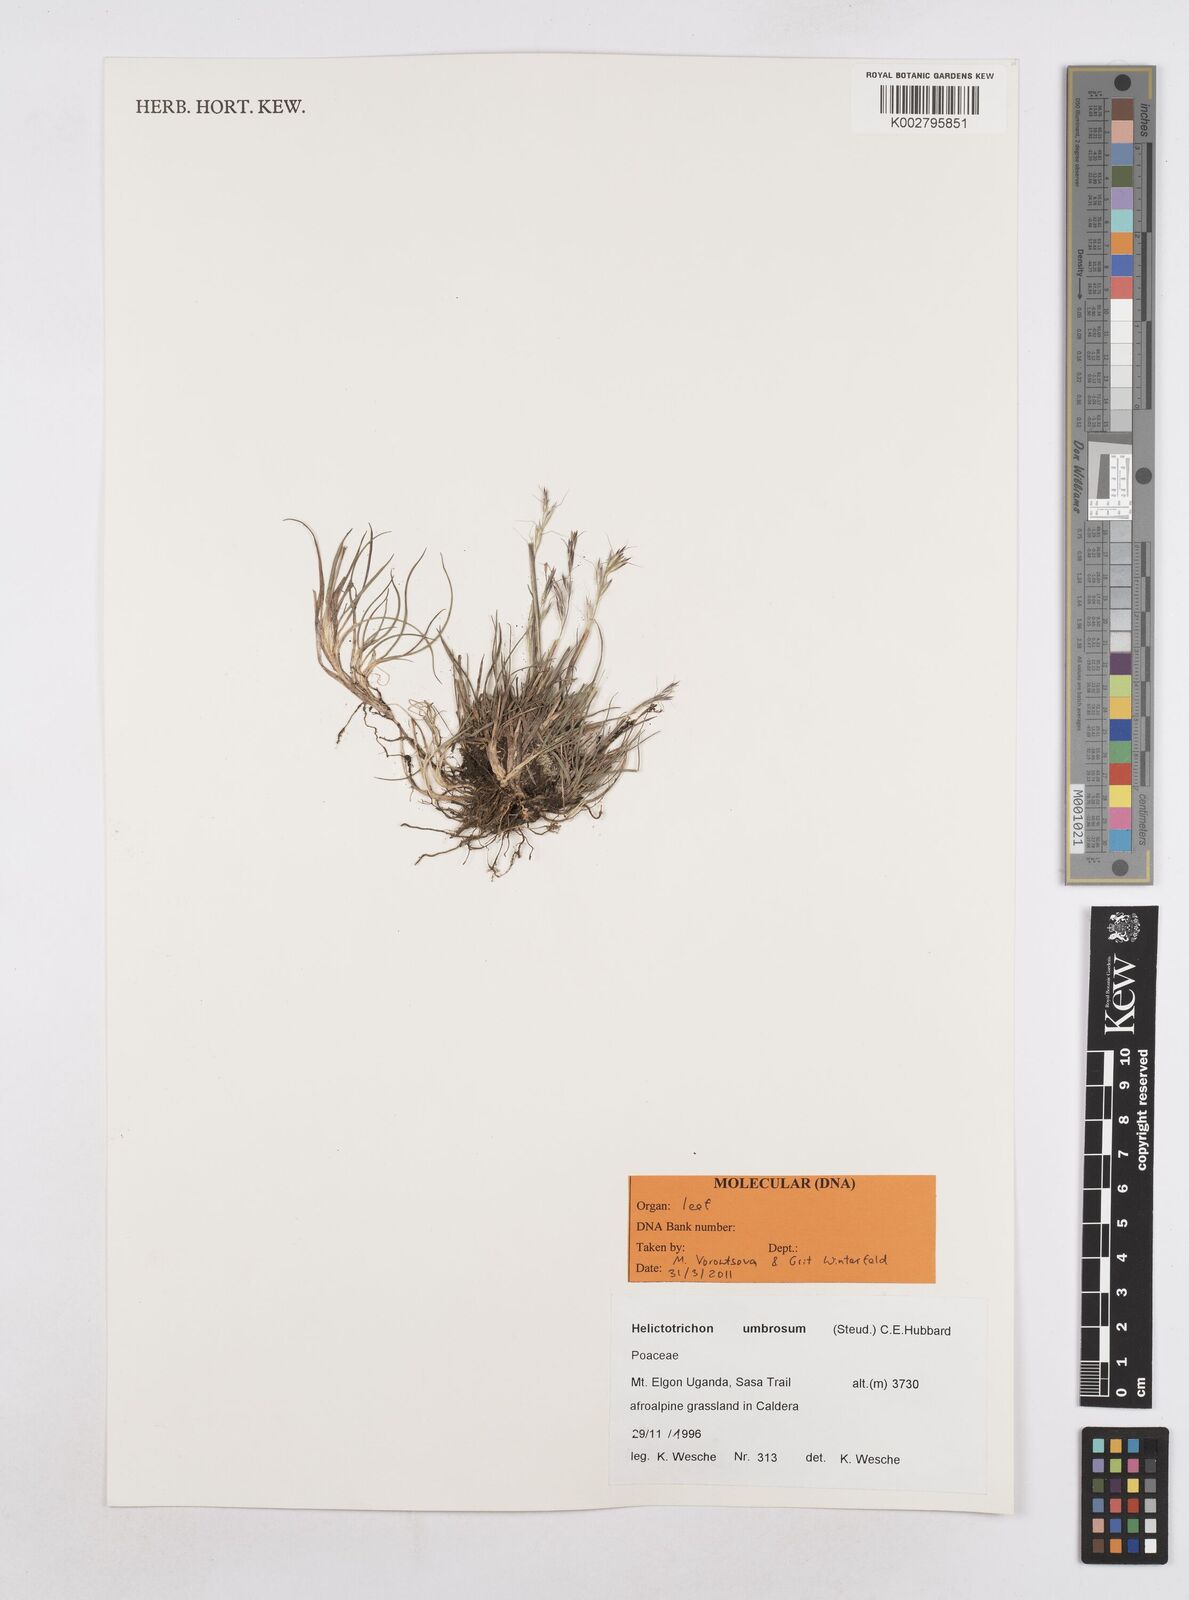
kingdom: Plantae
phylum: Tracheophyta
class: Liliopsida
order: Poales
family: Poaceae
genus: Trisetopsis
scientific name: Trisetopsis umbrosa
